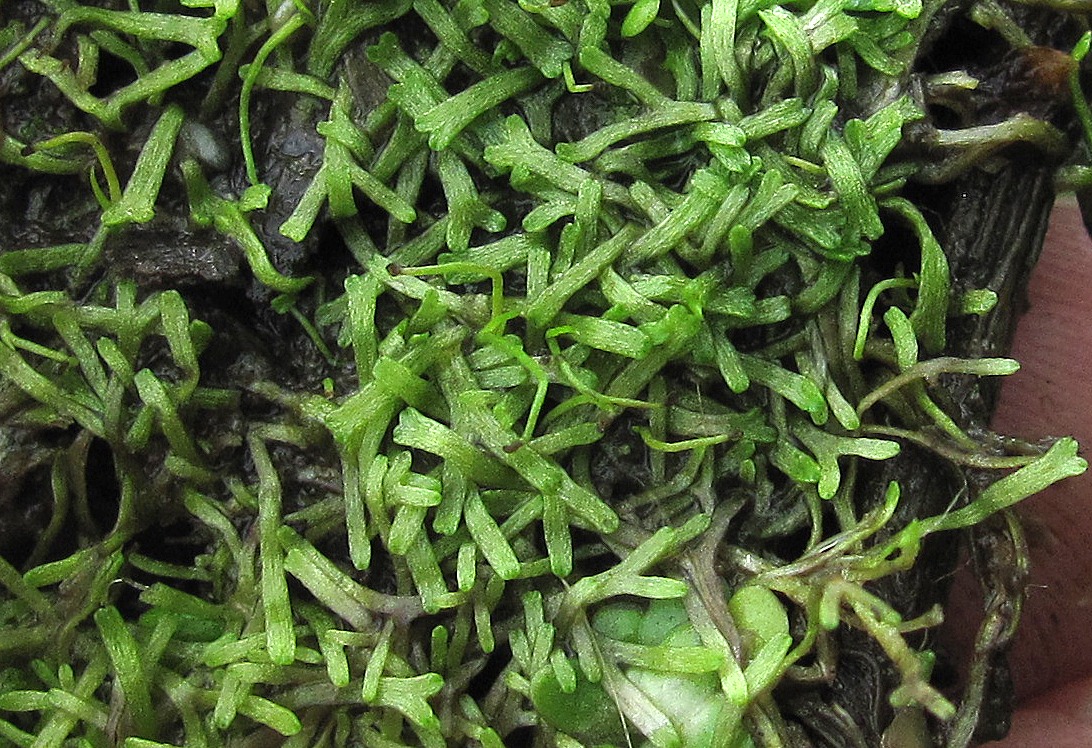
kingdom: Plantae
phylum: Marchantiophyta
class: Marchantiopsida
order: Marchantiales
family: Ricciaceae
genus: Riccia
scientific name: Riccia fluitans
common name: Svømmende stjerneløv
